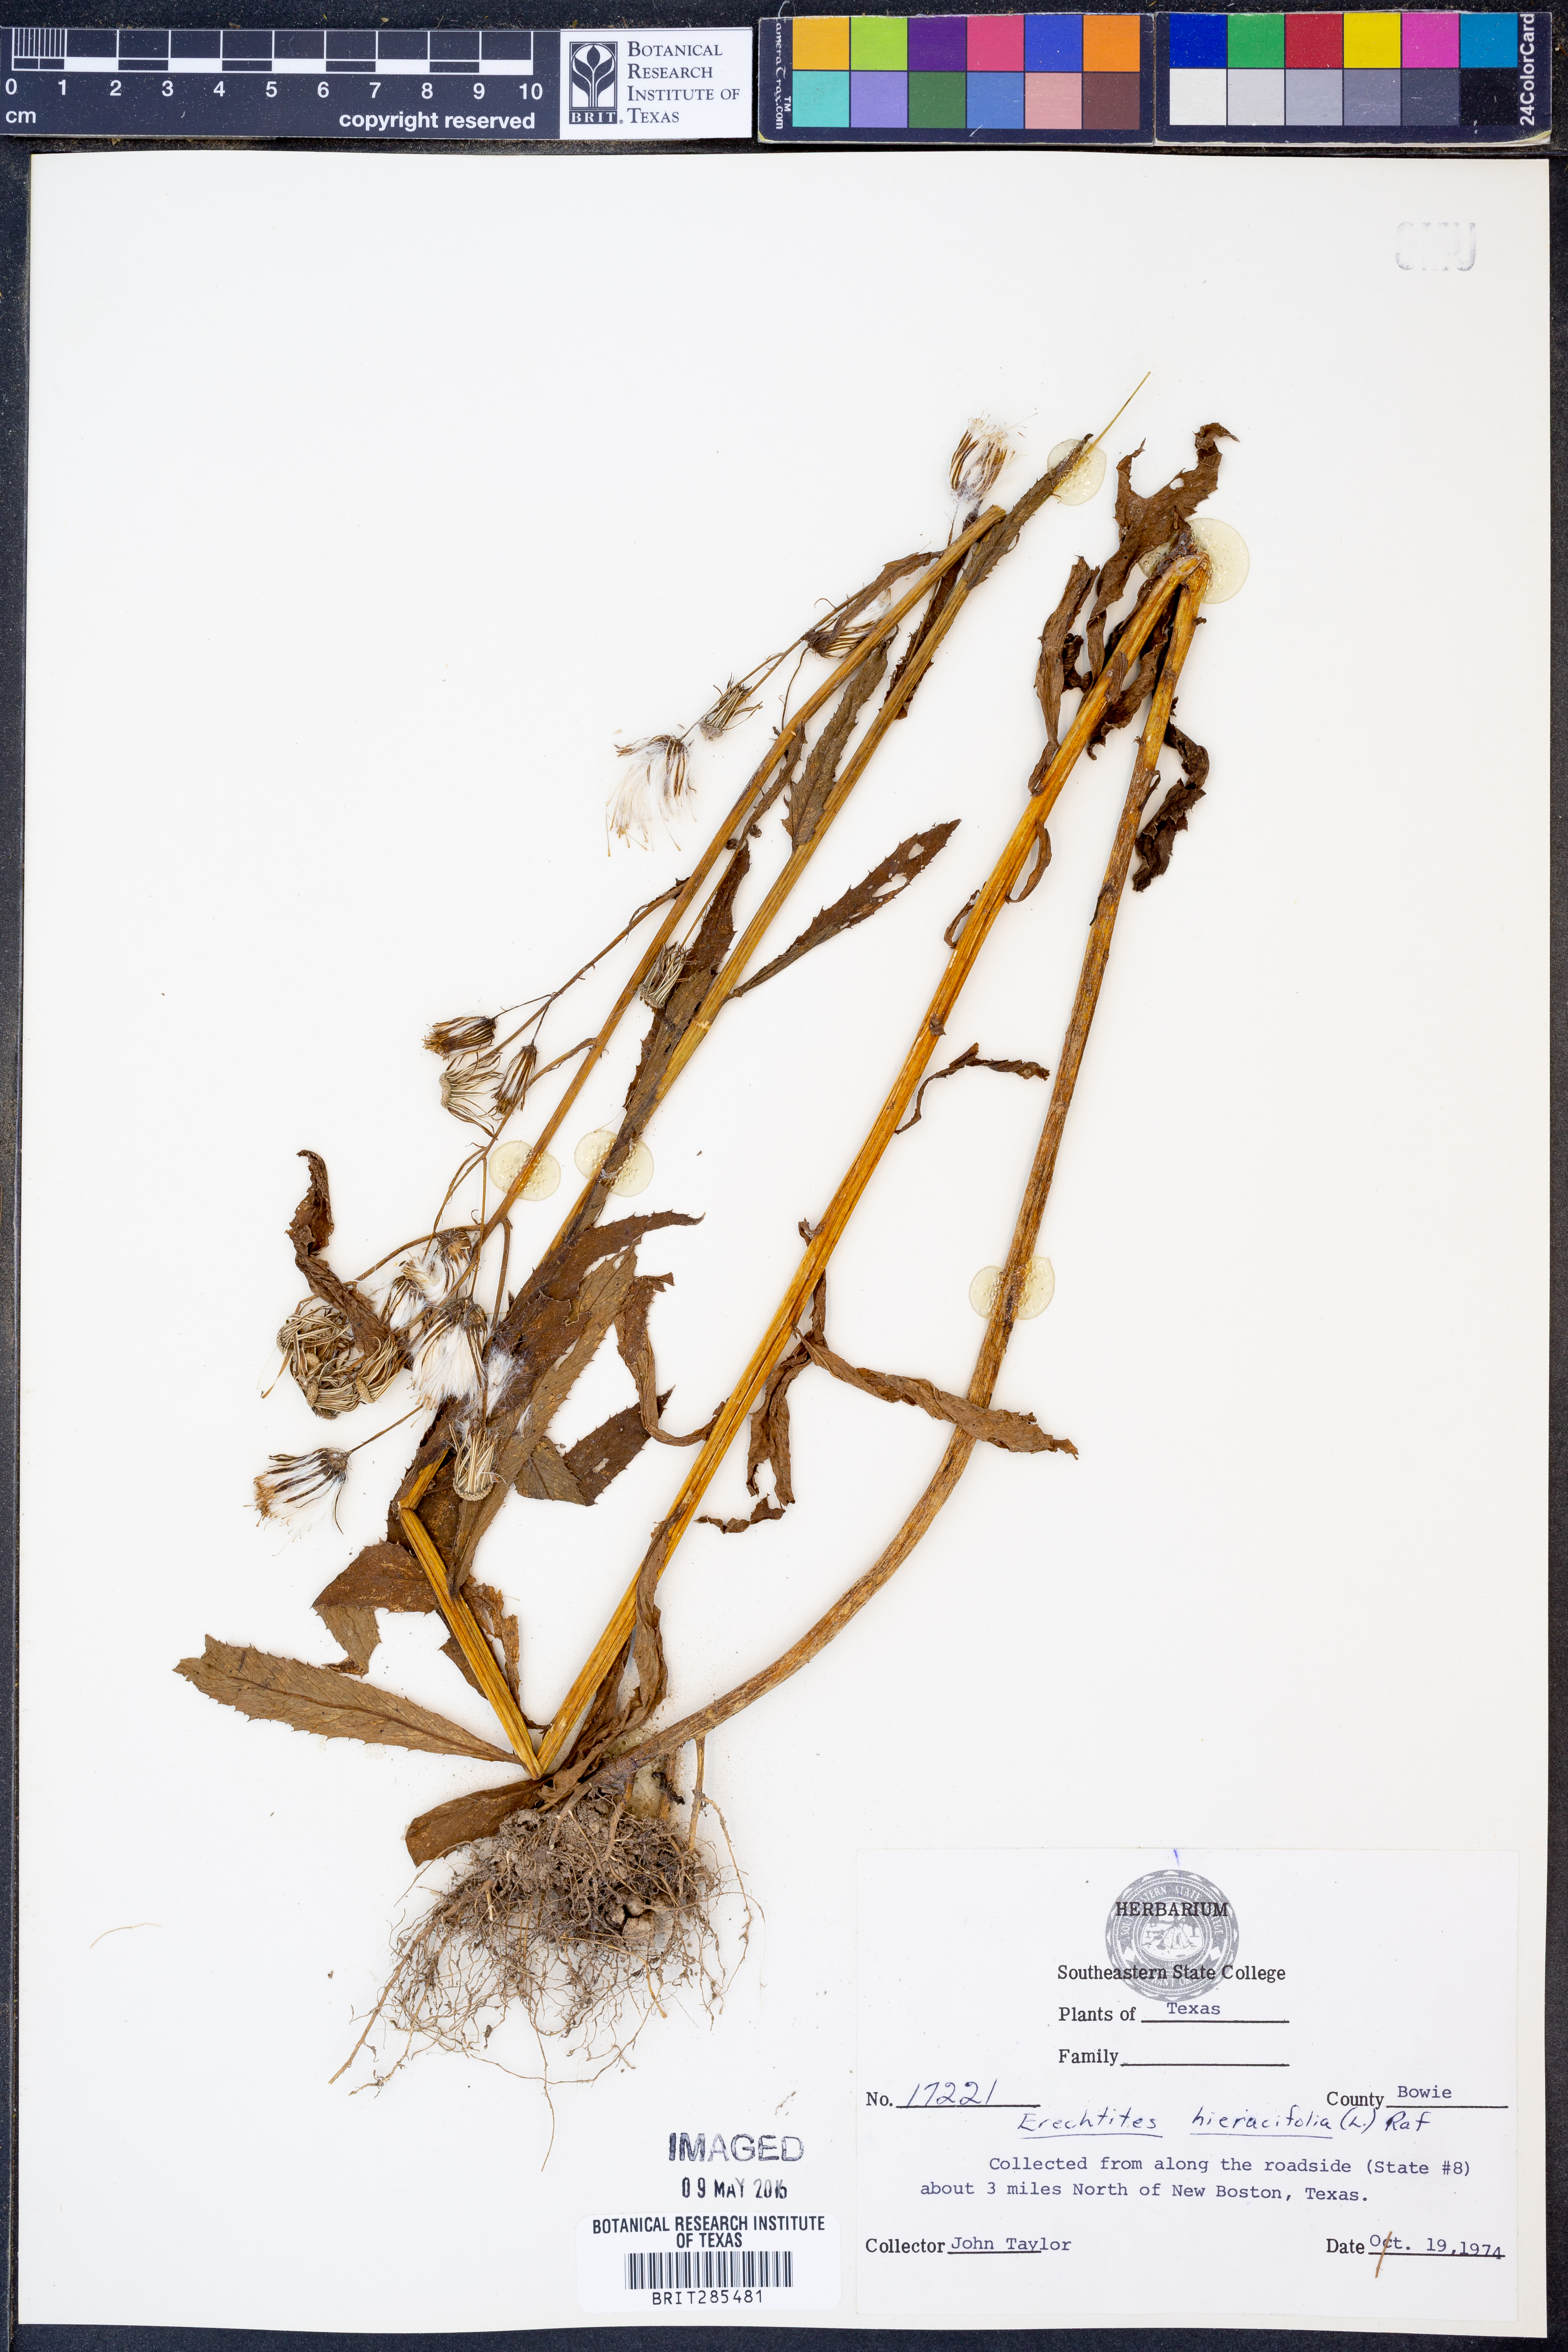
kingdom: Plantae
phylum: Tracheophyta
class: Magnoliopsida
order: Asterales
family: Asteraceae
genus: Erechtites
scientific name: Erechtites hieraciifolius
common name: American burnweed
